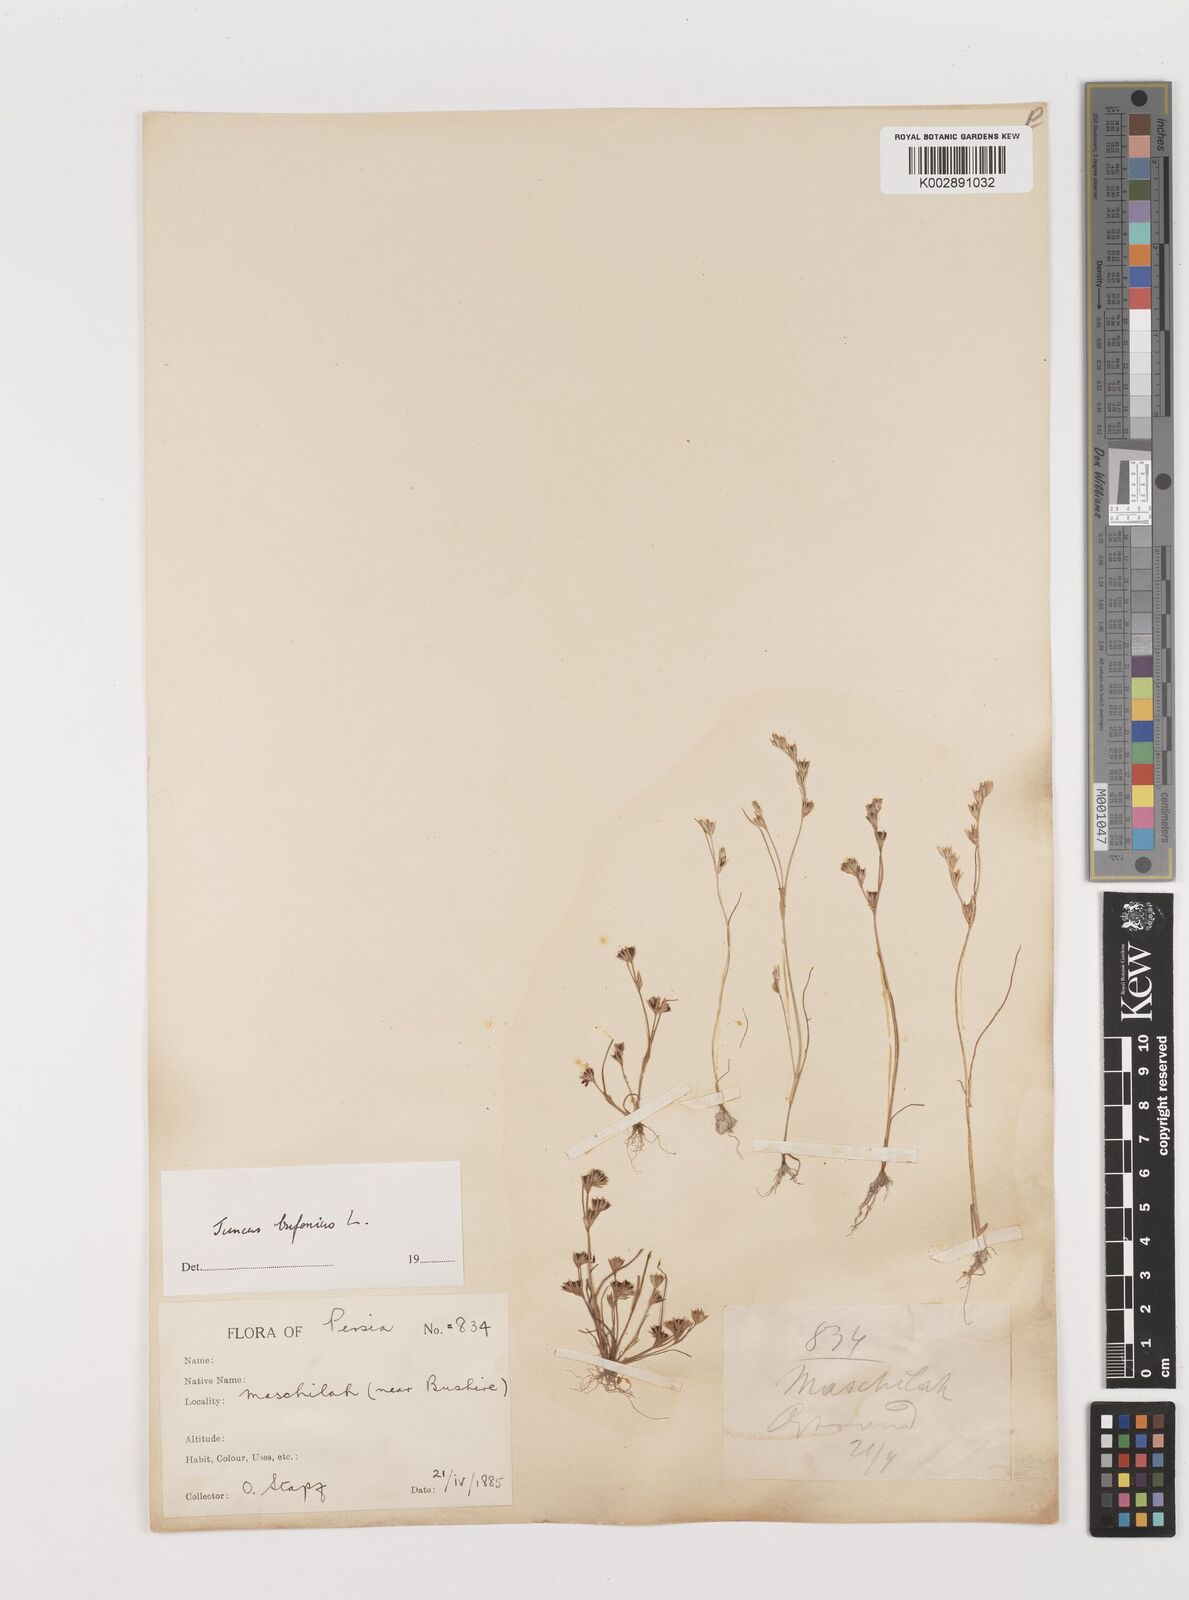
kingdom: Plantae
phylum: Tracheophyta
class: Liliopsida
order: Poales
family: Juncaceae
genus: Juncus
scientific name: Juncus bufonius
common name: Toad rush
